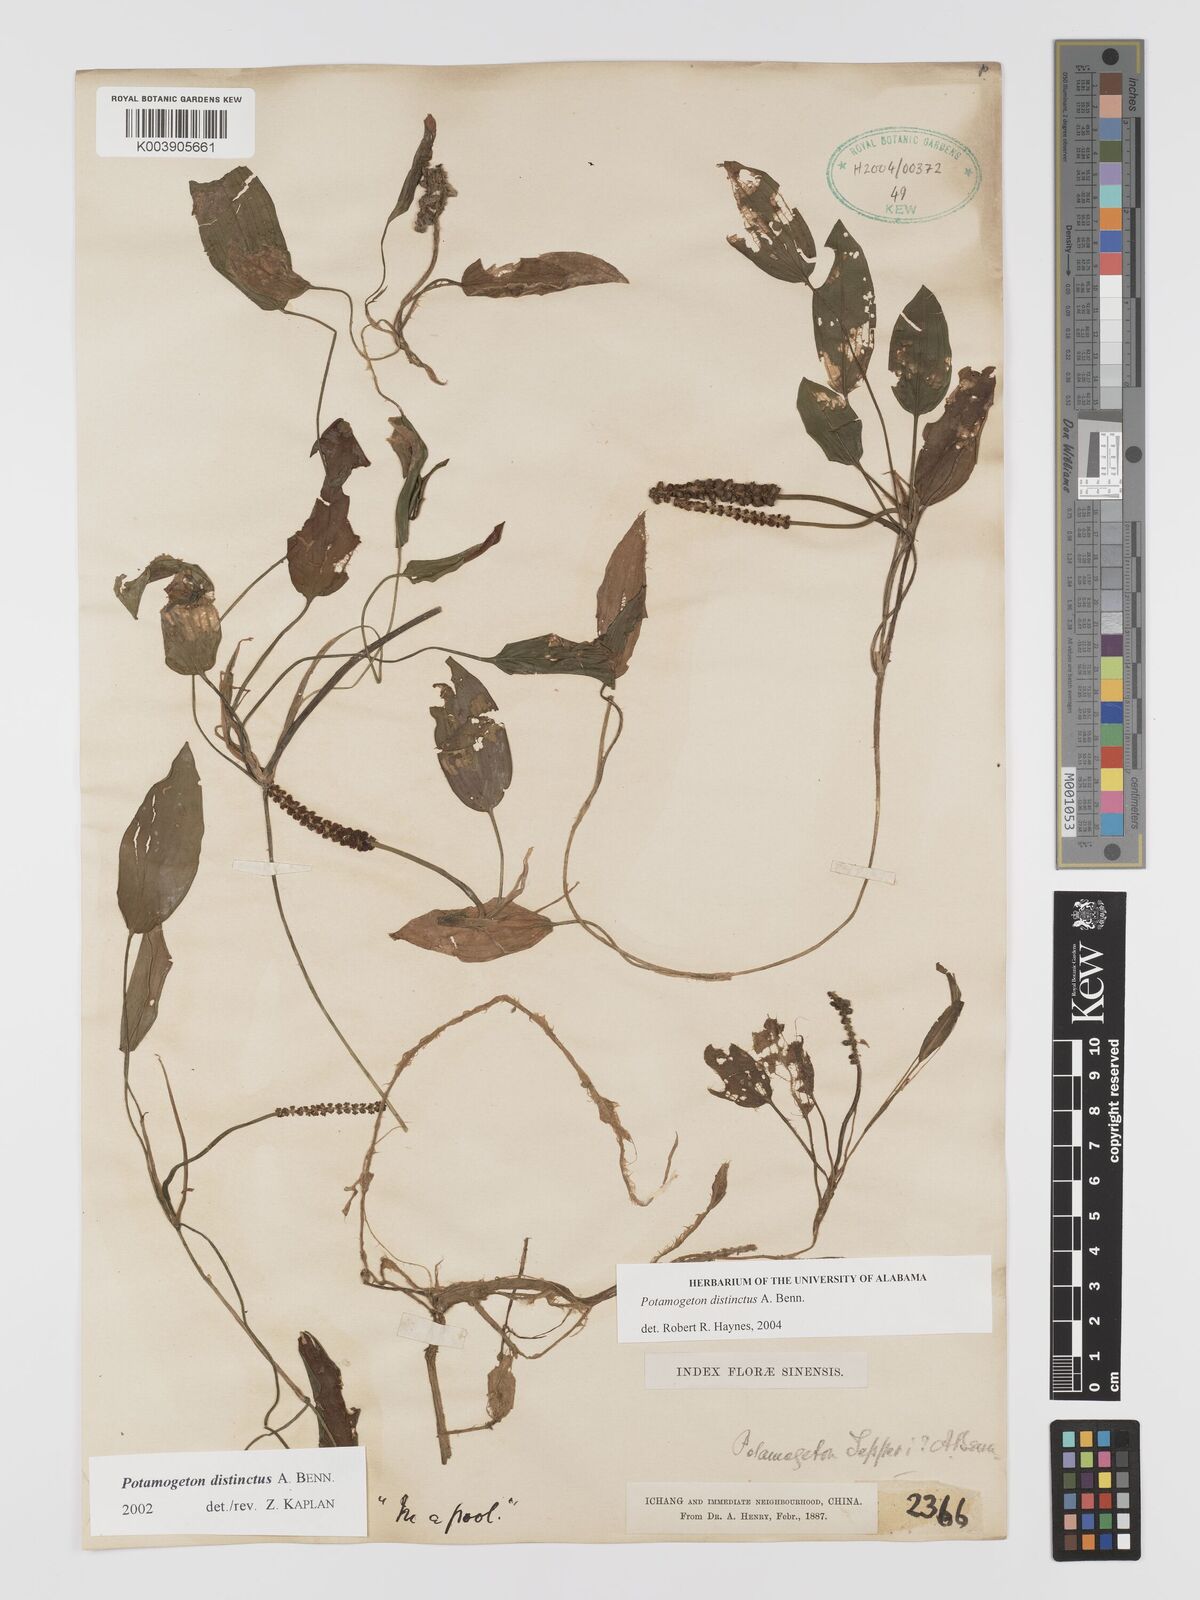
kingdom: Plantae
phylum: Tracheophyta
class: Liliopsida
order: Alismatales
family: Potamogetonaceae
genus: Potamogeton
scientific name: Potamogeton distinctus
